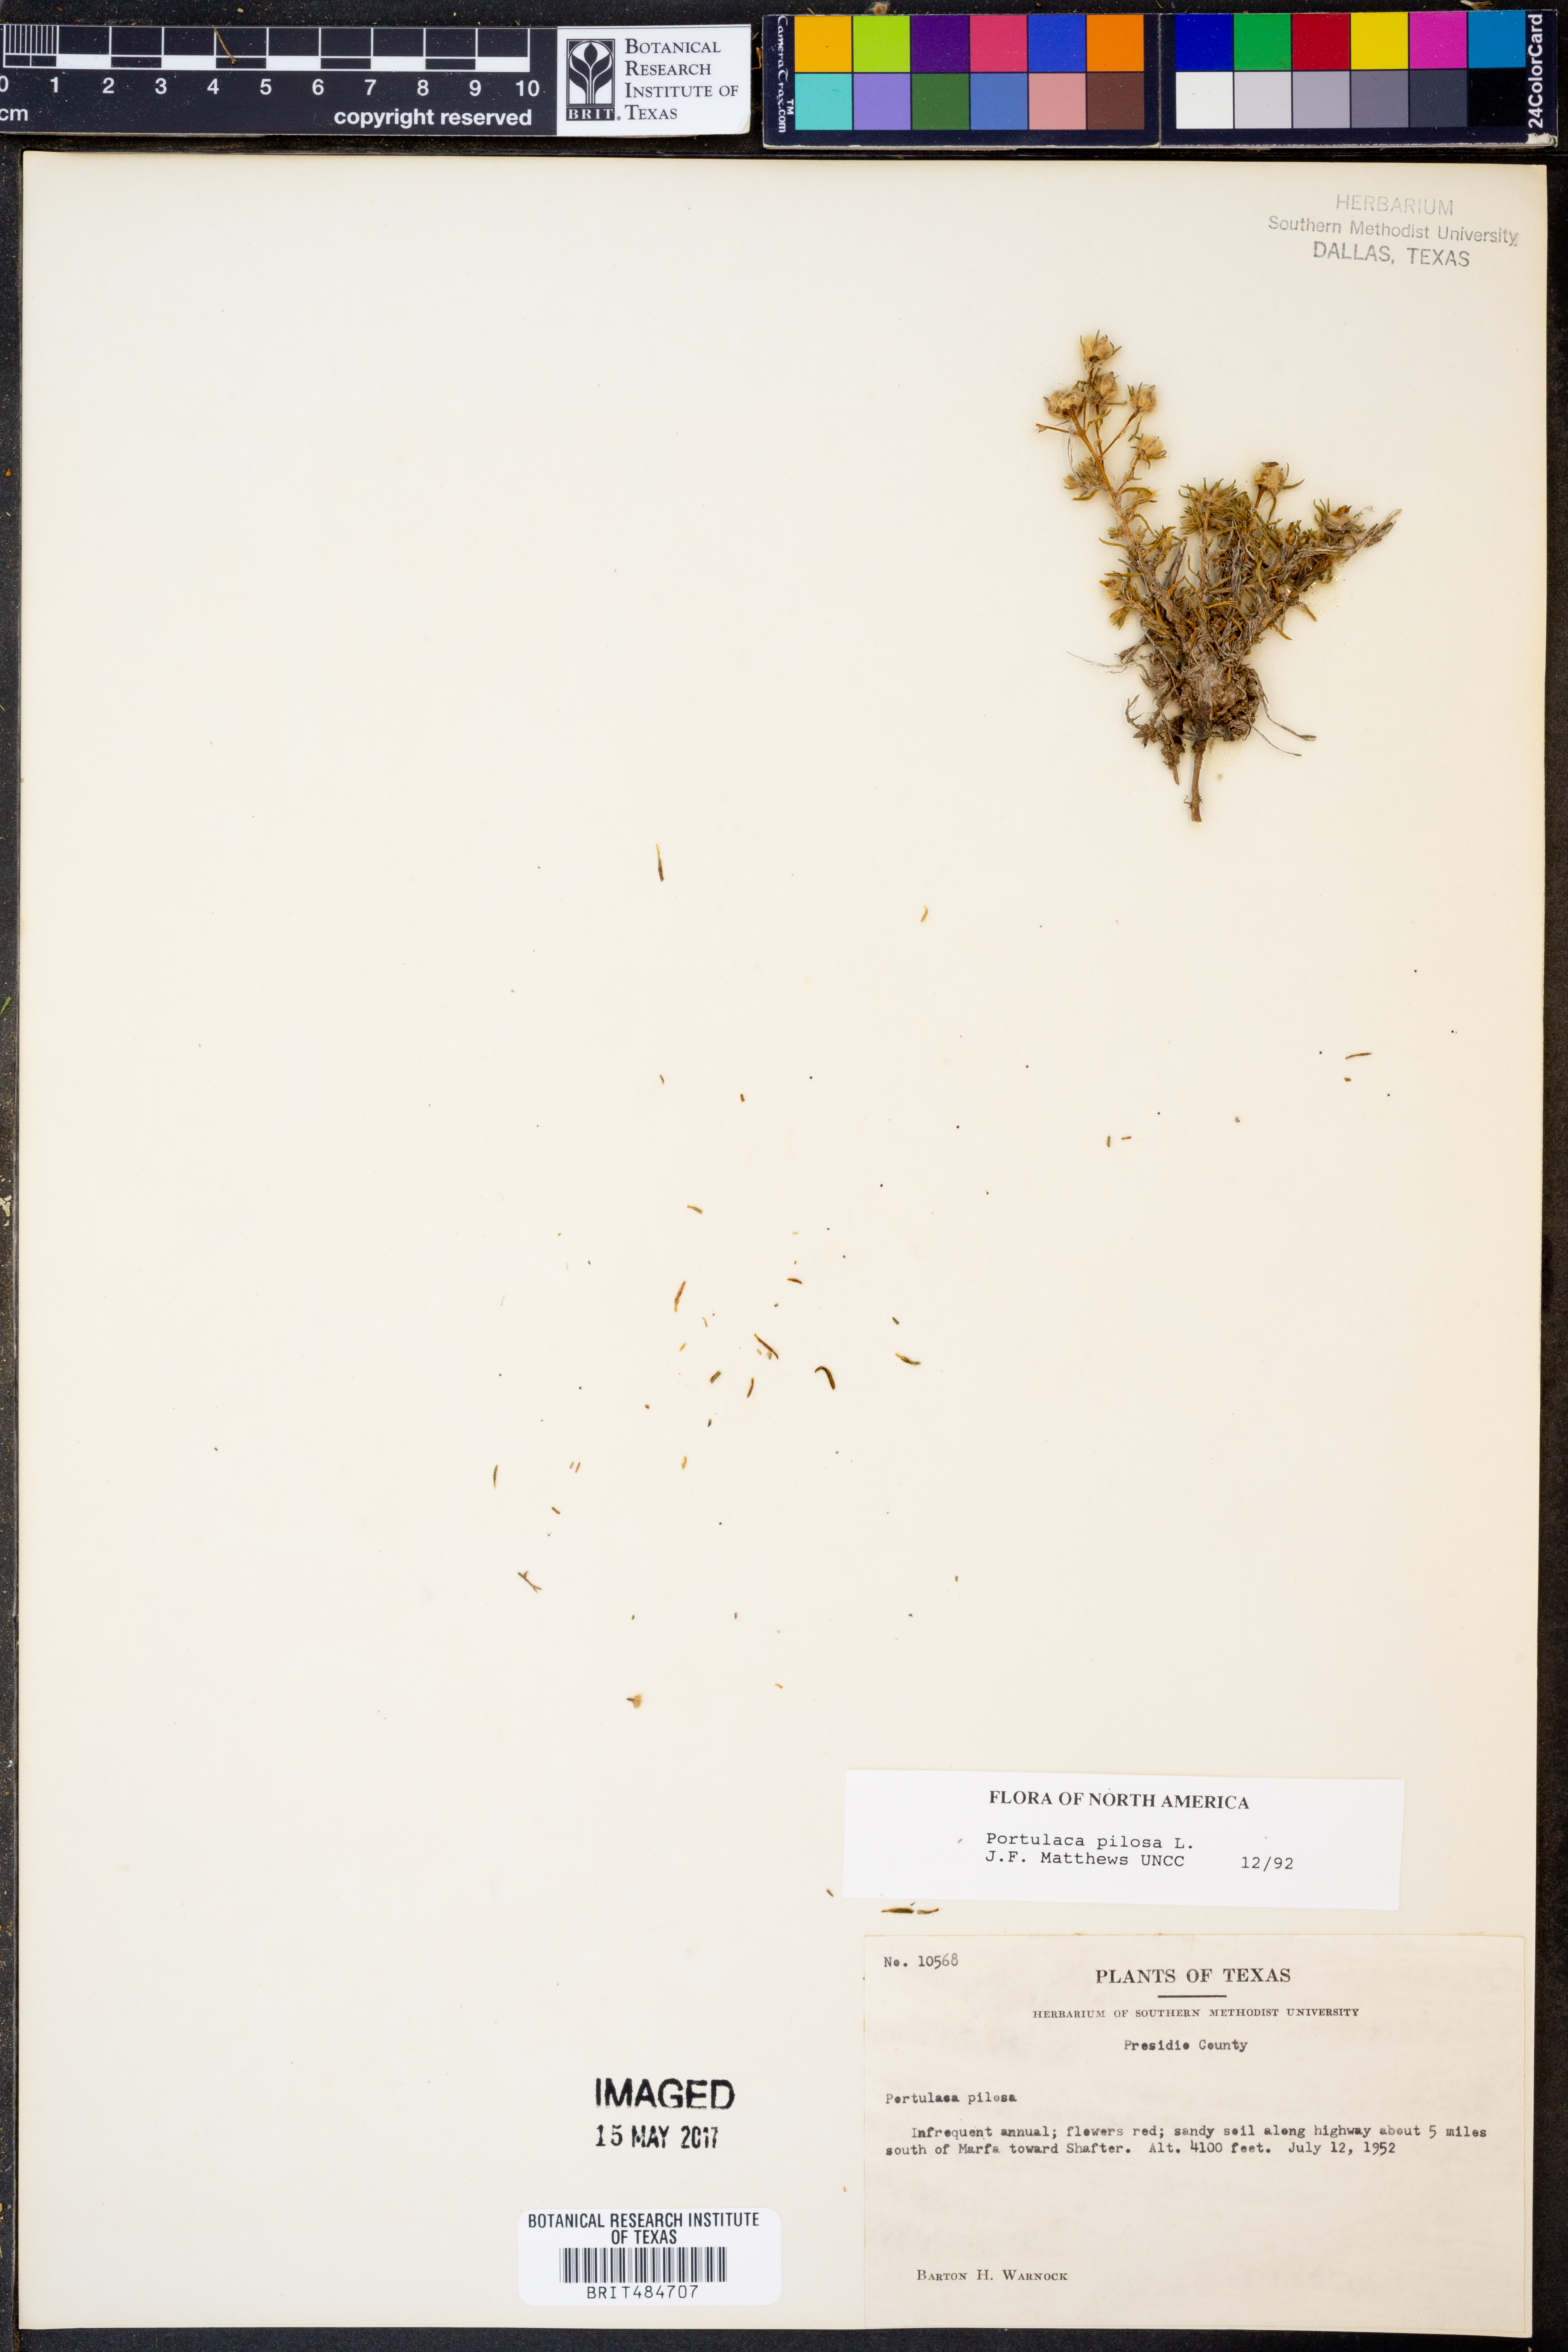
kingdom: Plantae
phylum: Tracheophyta
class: Magnoliopsida
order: Caryophyllales
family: Portulacaceae
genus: Portulaca
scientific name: Portulaca pilosa
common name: Kiss me quick
